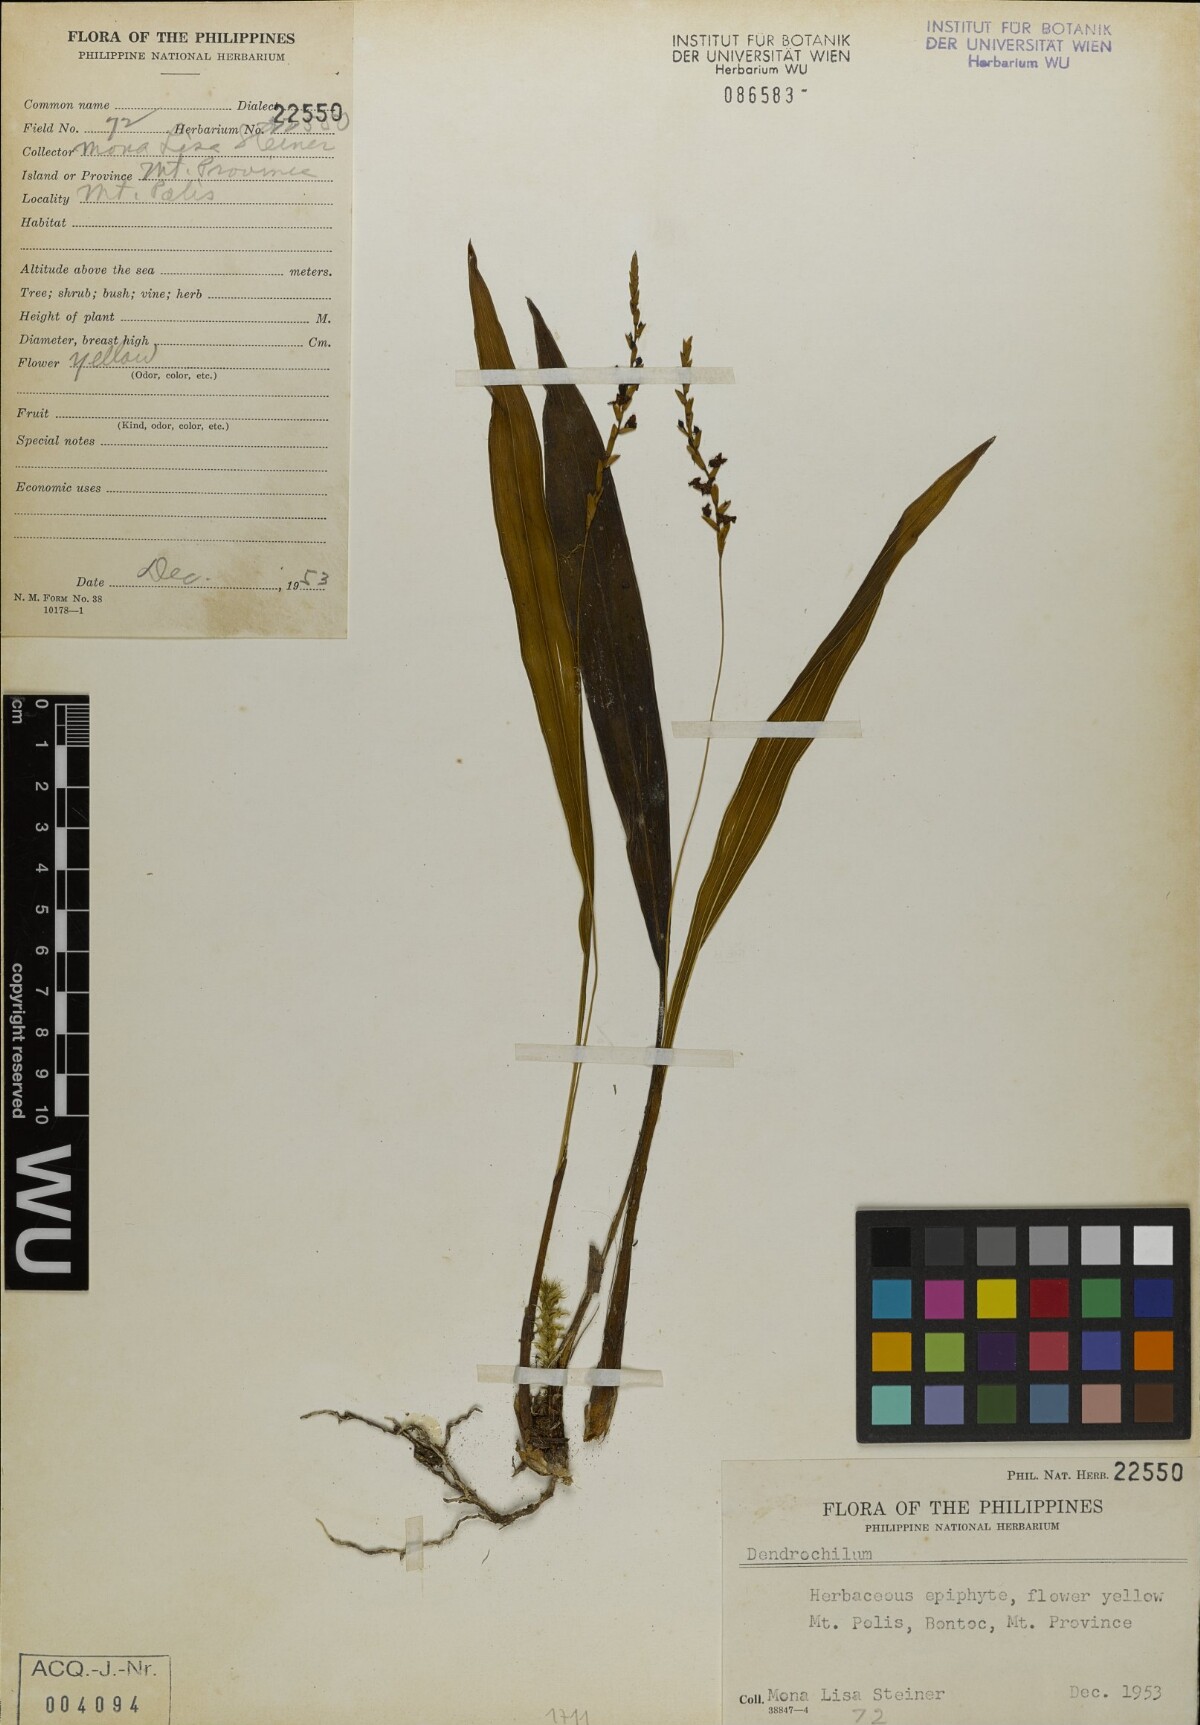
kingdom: Plantae
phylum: Tracheophyta
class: Liliopsida
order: Asparagales
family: Orchidaceae
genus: Coelogyne
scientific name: Coelogyne
